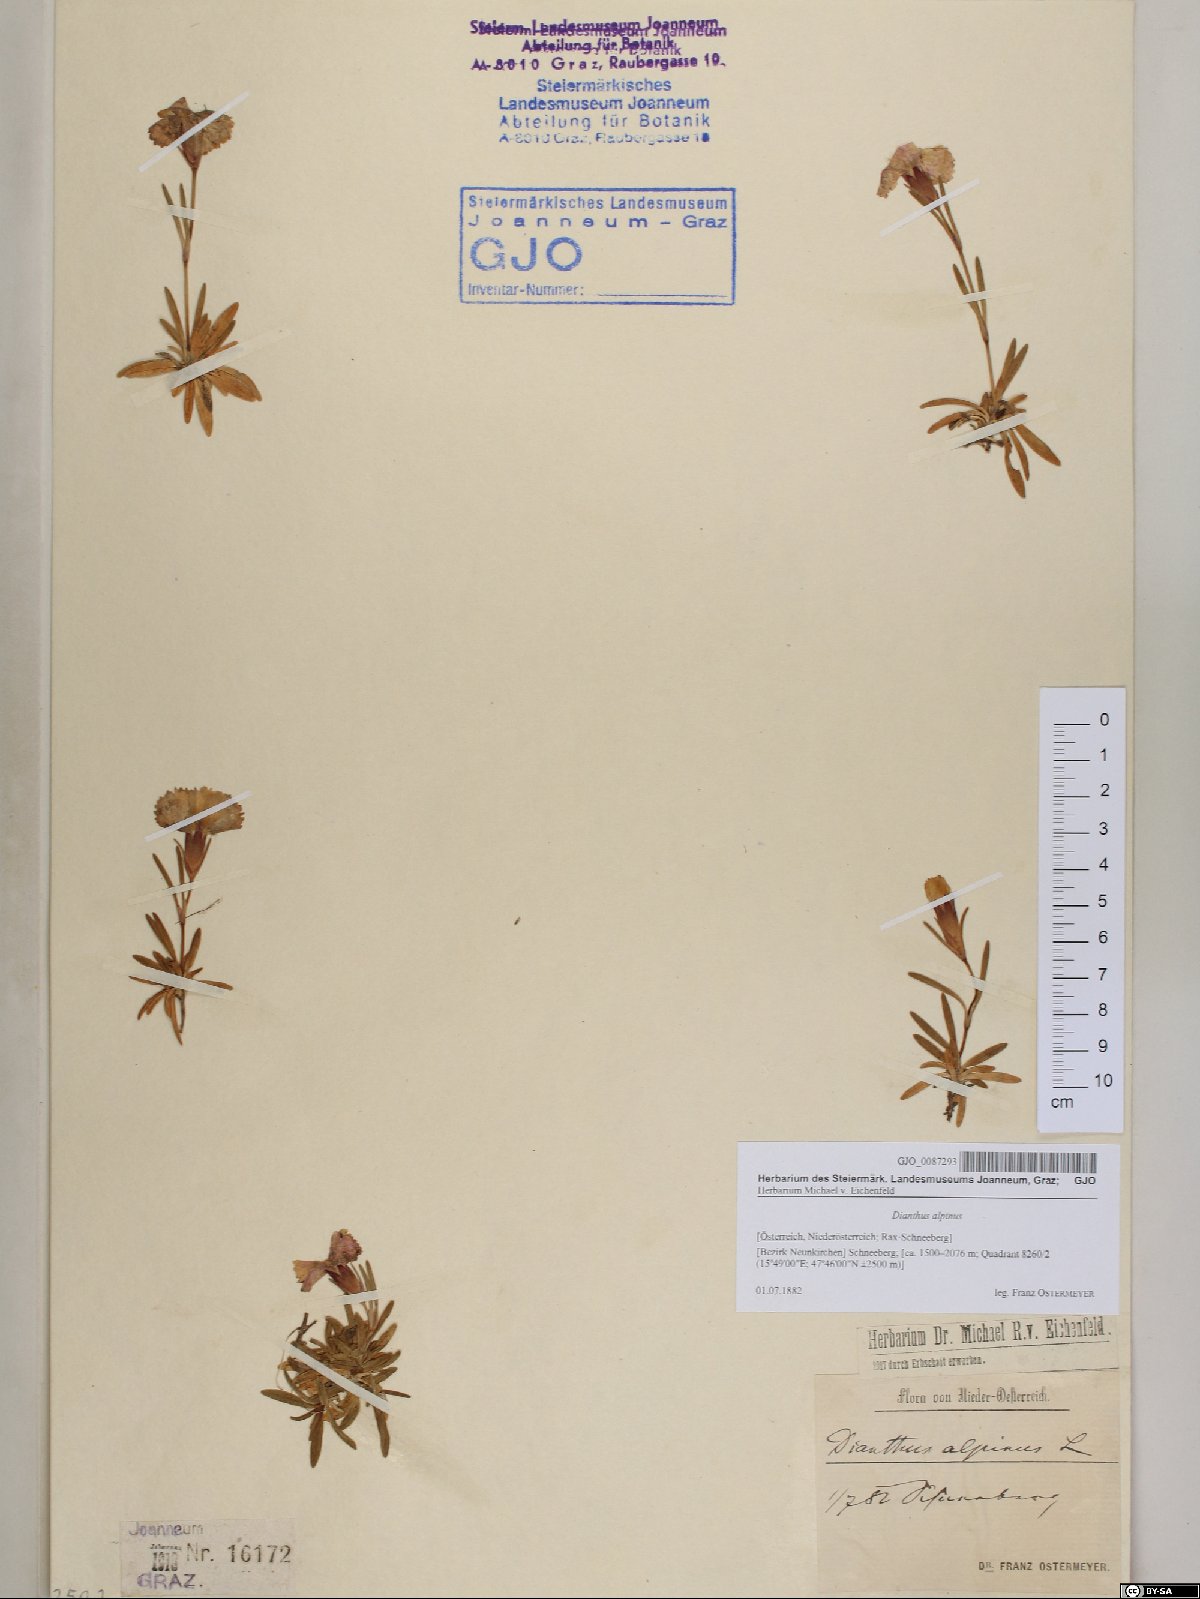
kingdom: Plantae
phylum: Tracheophyta
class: Magnoliopsida
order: Caryophyllales
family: Caryophyllaceae
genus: Dianthus
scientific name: Dianthus alpinus
